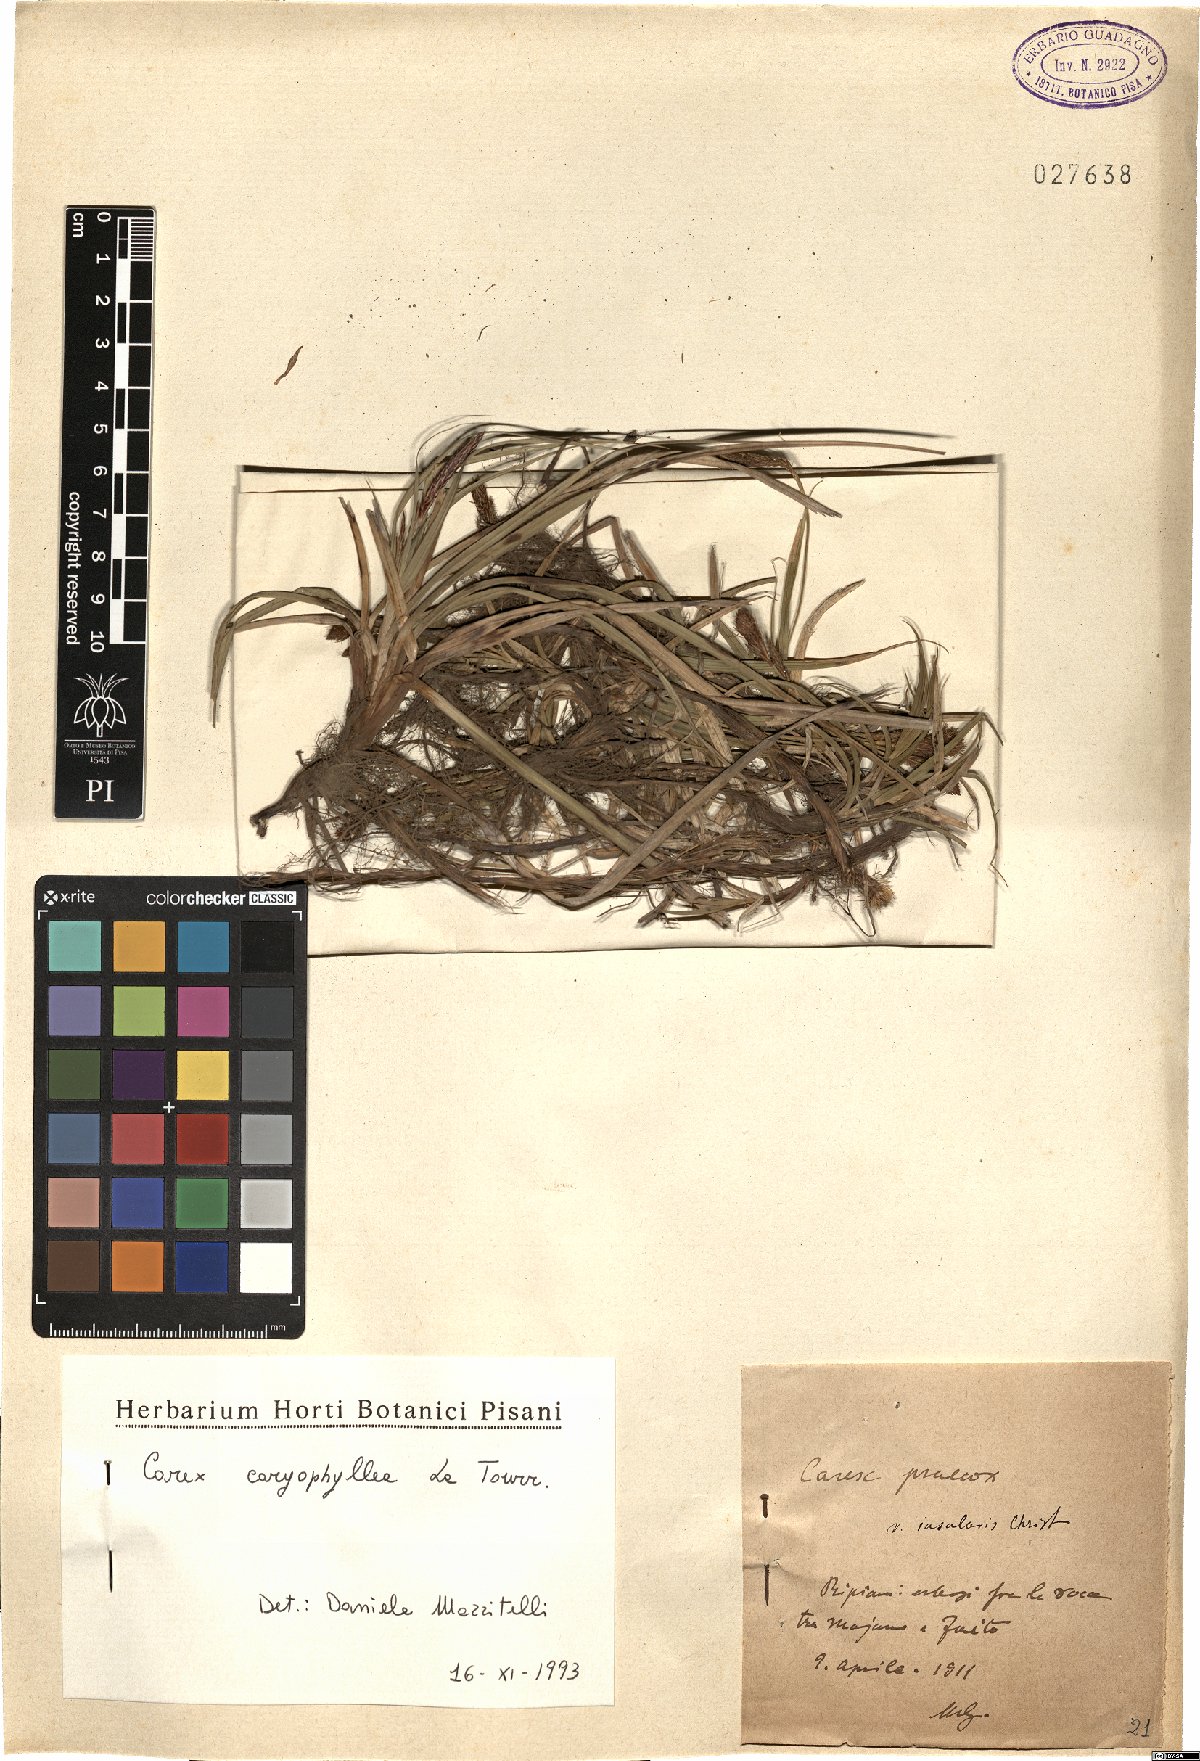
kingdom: Plantae
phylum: Tracheophyta
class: Liliopsida
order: Poales
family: Cyperaceae
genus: Carex
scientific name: Carex caryophyllea
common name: Spring sedge
